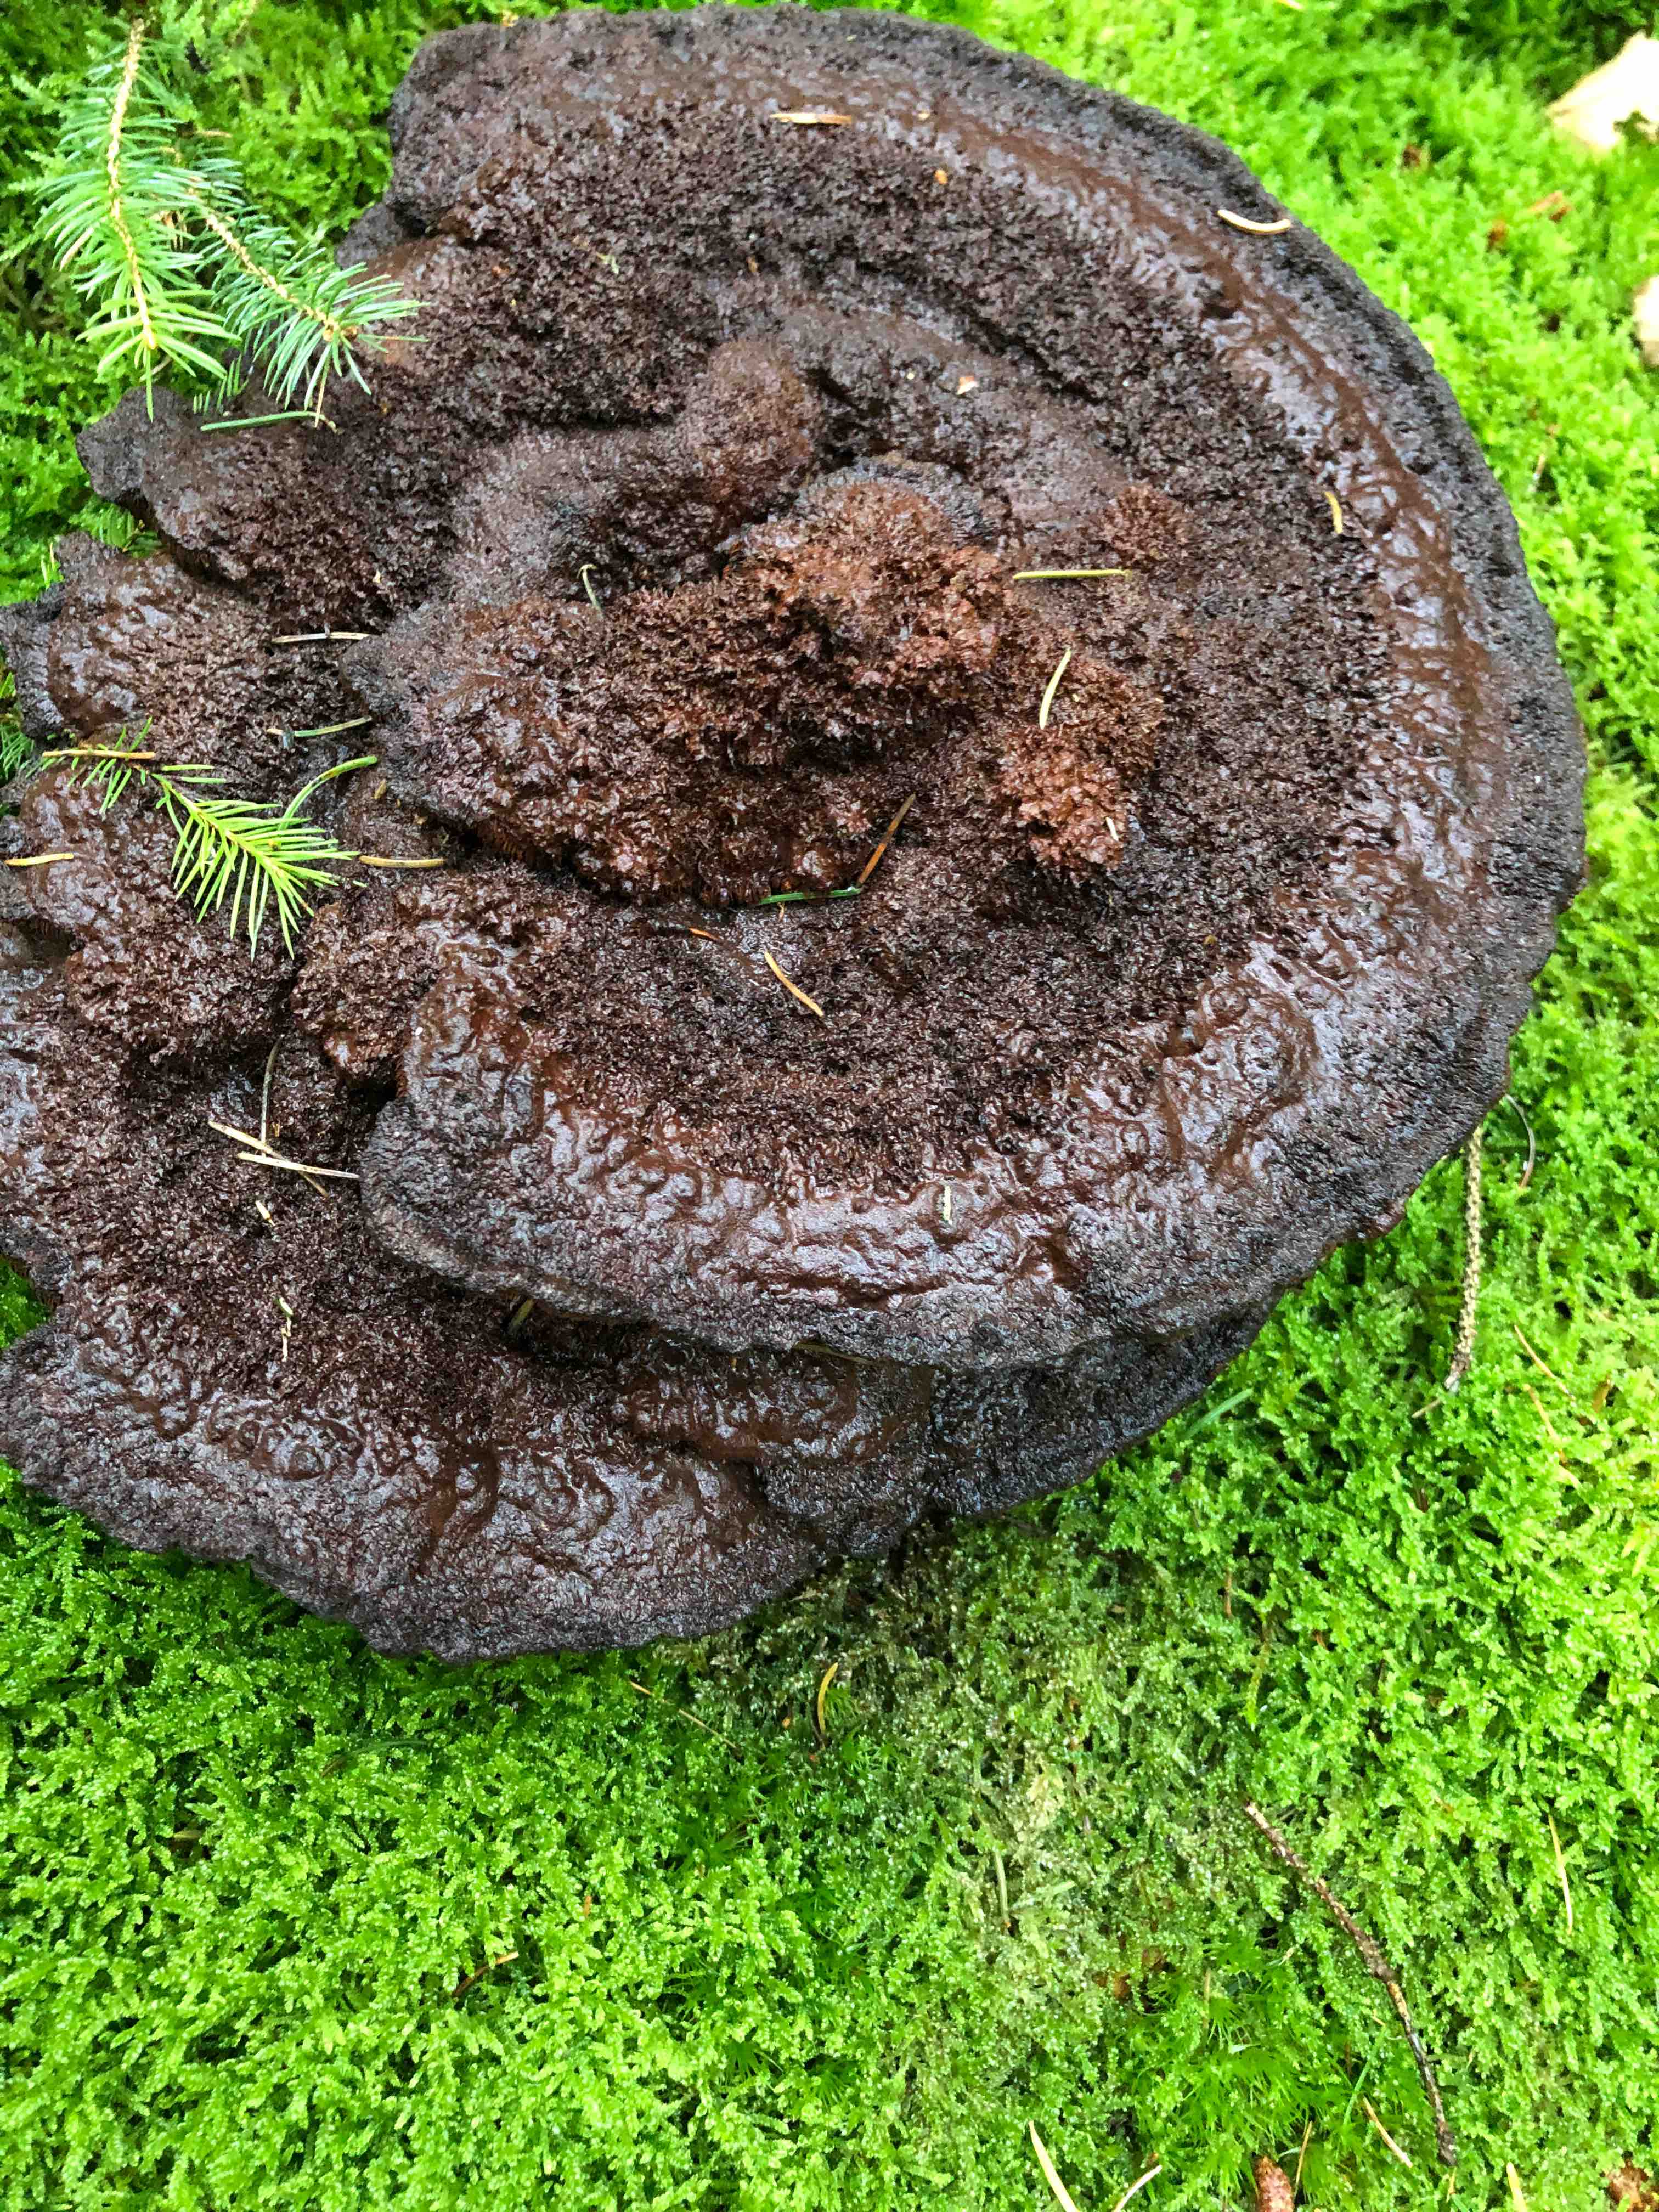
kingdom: Fungi
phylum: Basidiomycota
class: Agaricomycetes
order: Polyporales
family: Laetiporaceae
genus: Phaeolus
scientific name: Phaeolus schweinitzii
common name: brunporesvamp
